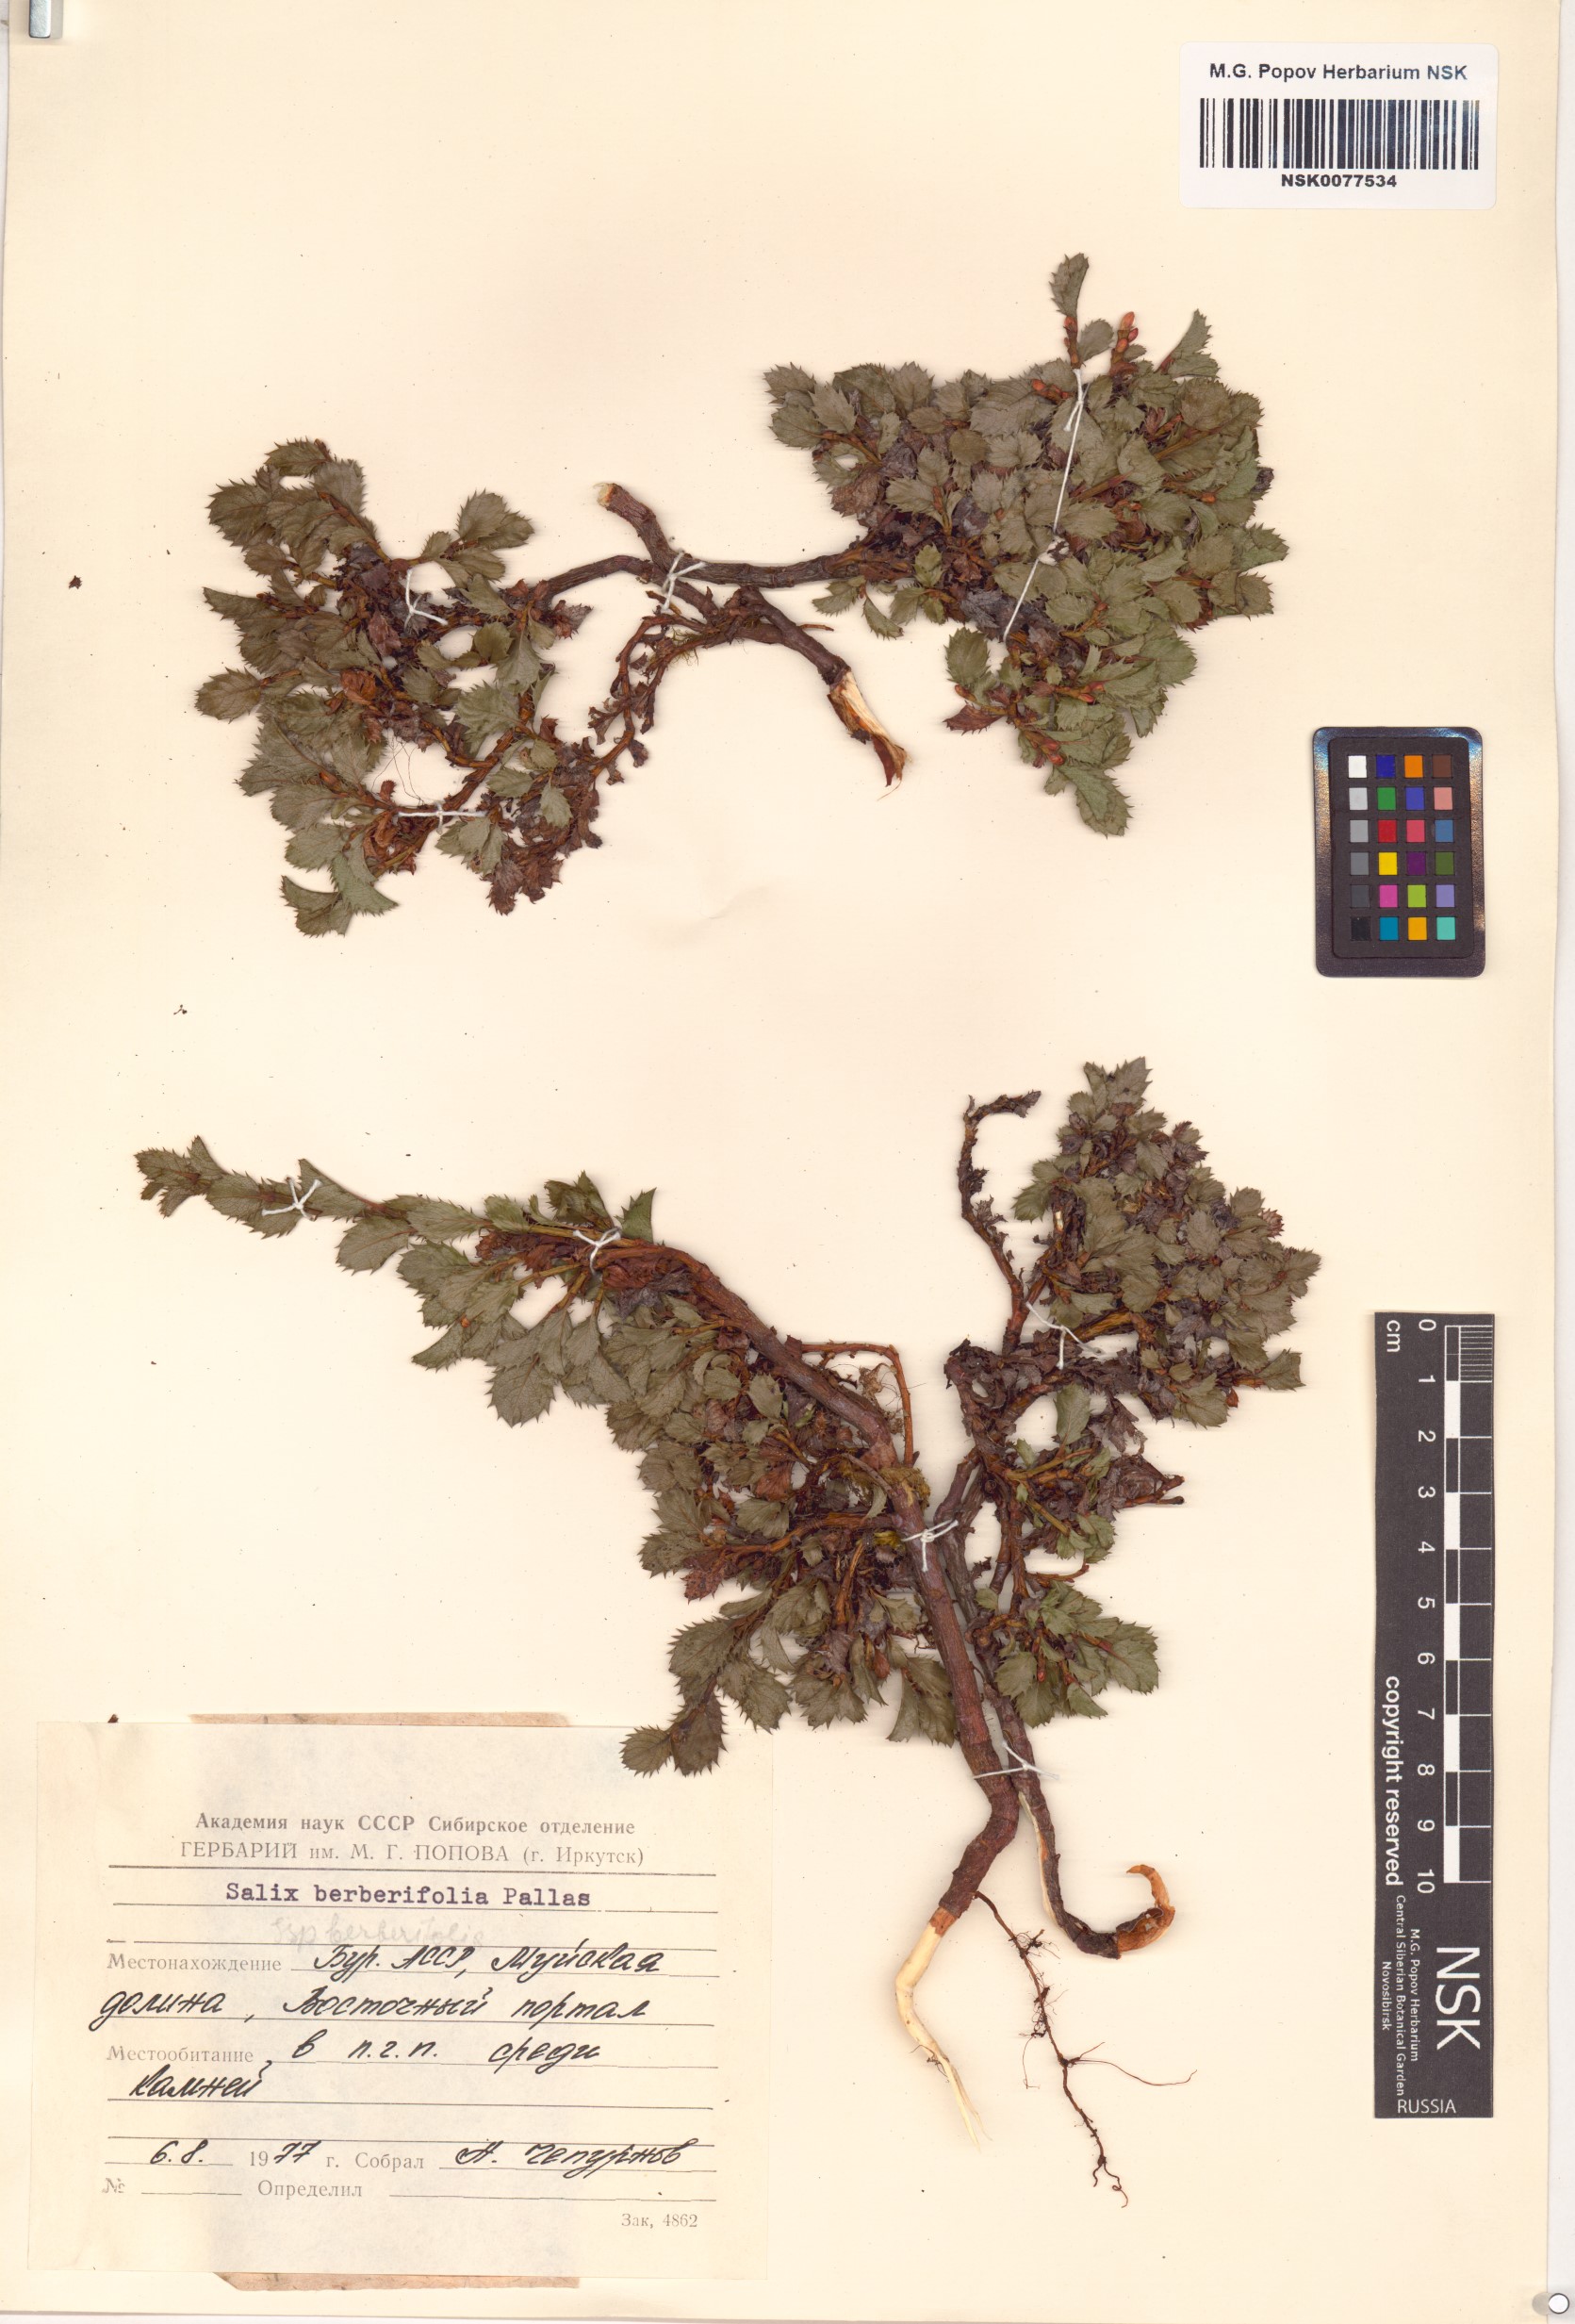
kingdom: Plantae
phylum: Tracheophyta
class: Magnoliopsida
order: Malpighiales
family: Salicaceae
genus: Salix
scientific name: Salix berberifolia
